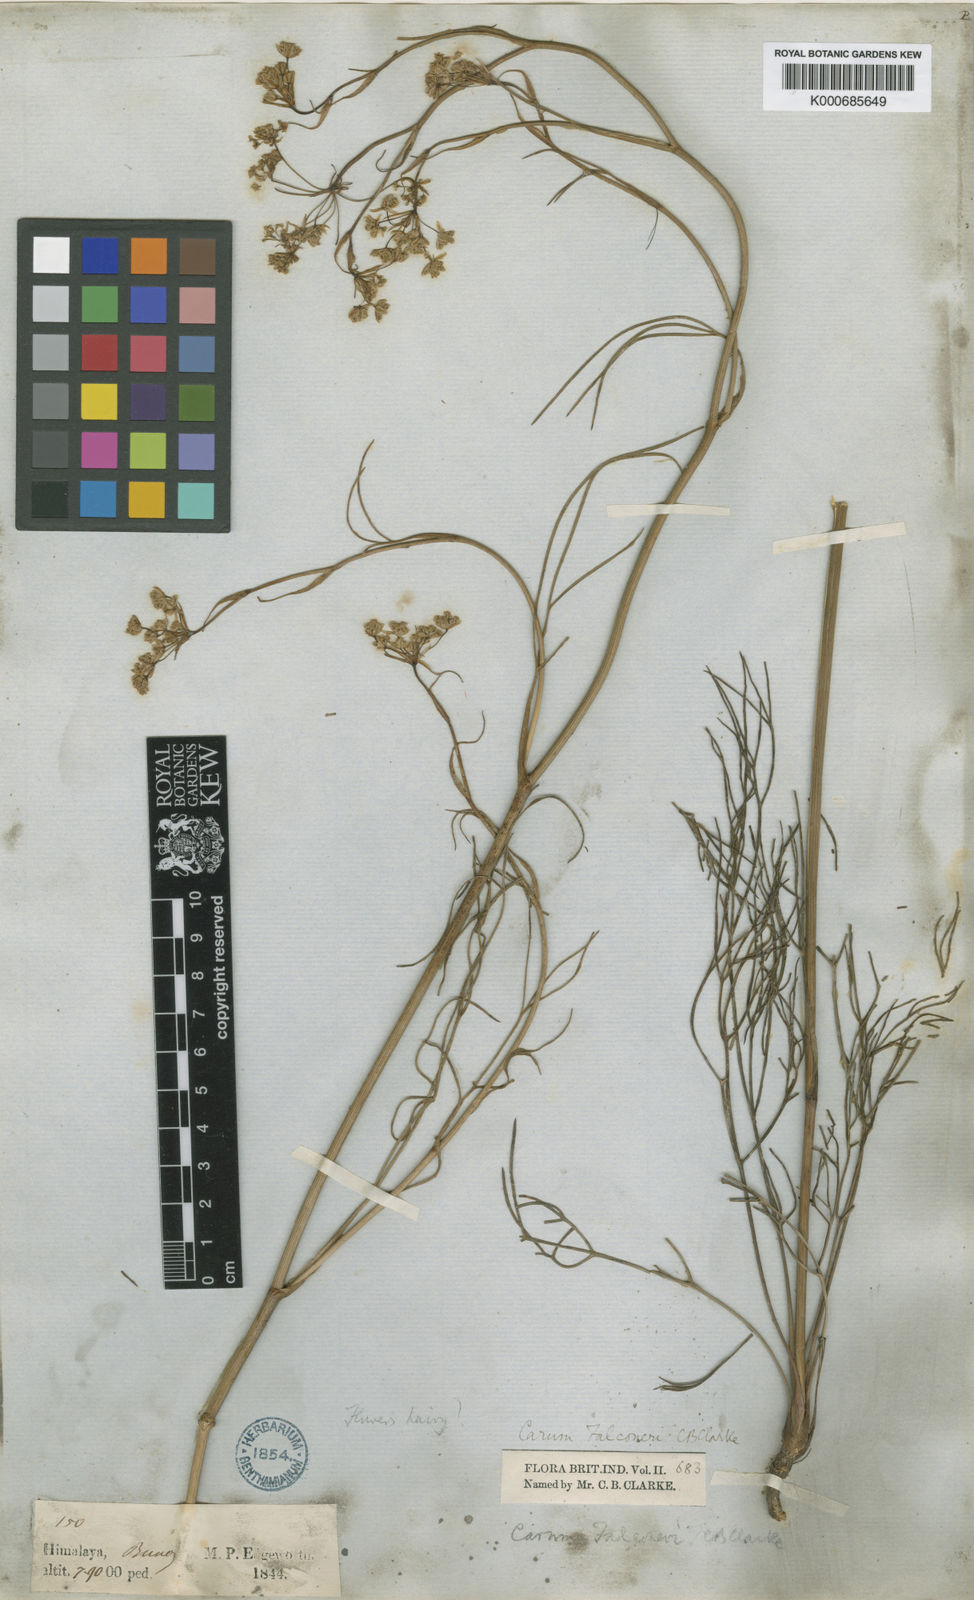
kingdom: Plantae
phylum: Tracheophyta
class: Magnoliopsida
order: Apiales
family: Apiaceae
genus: Trachyspermum
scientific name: Trachyspermum falconeri
